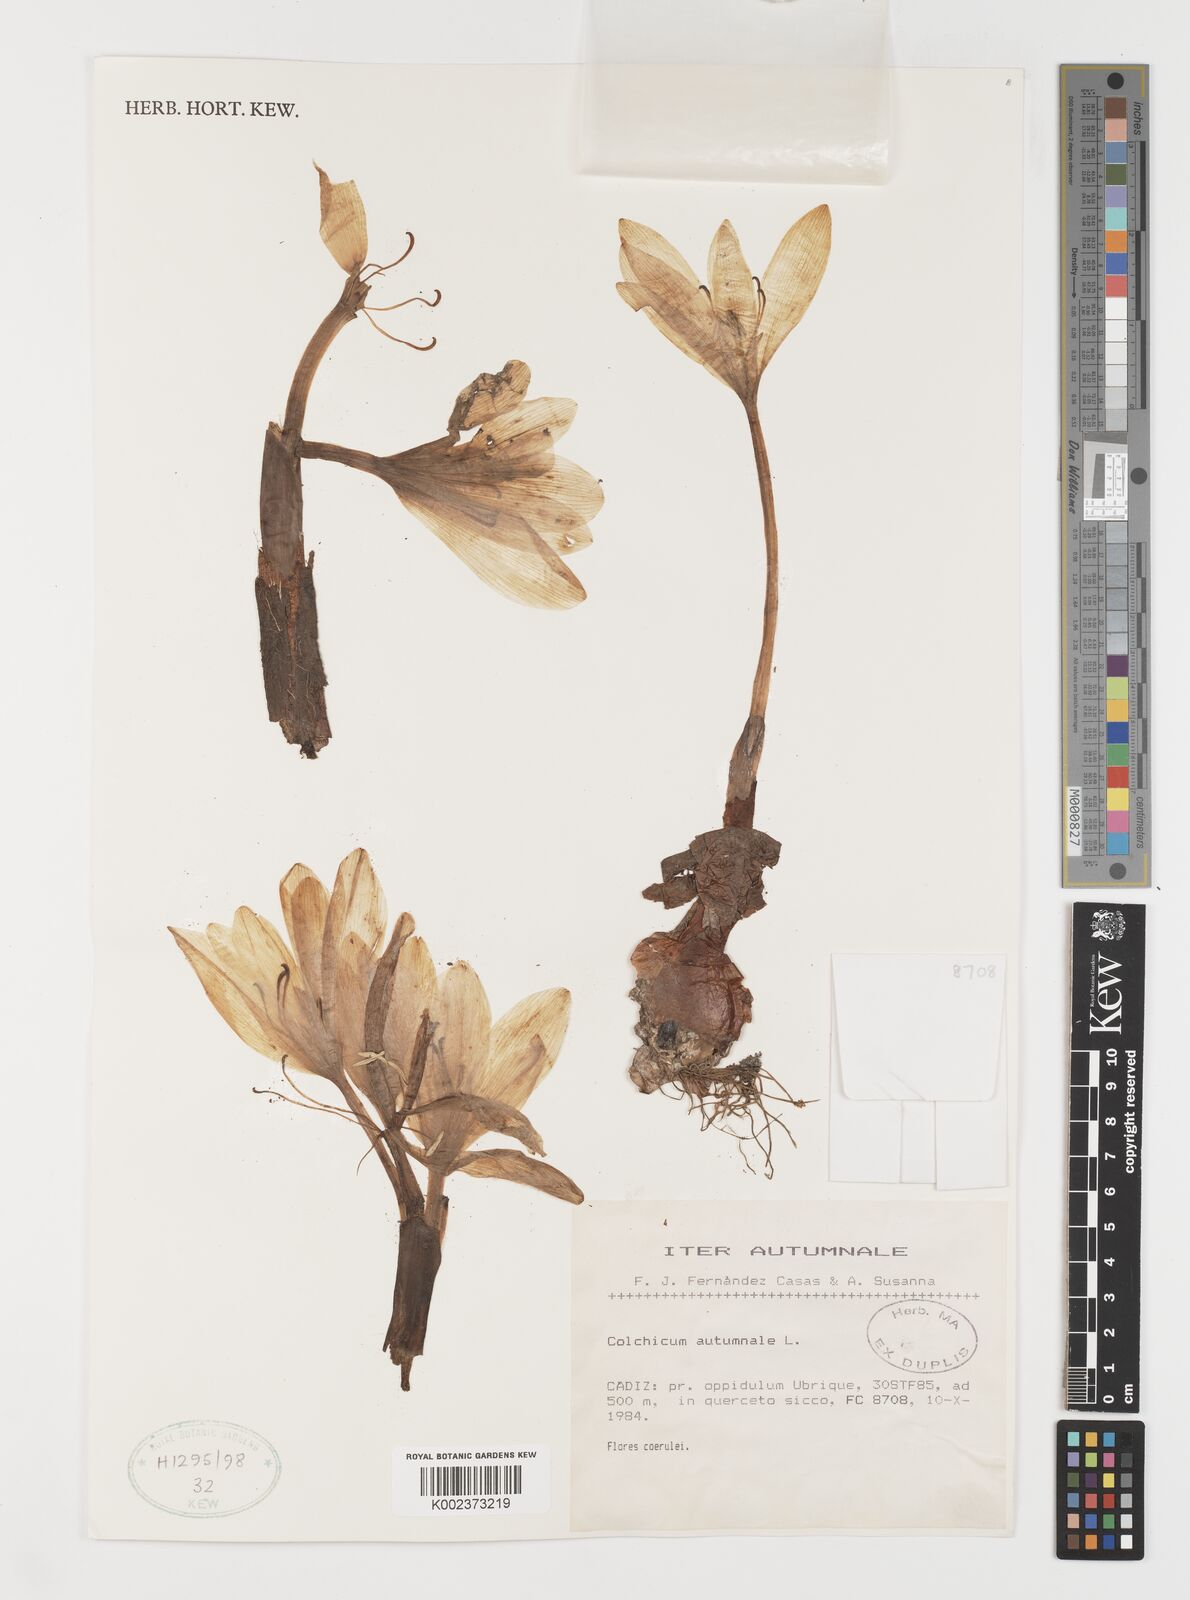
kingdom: Plantae
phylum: Tracheophyta
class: Liliopsida
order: Liliales
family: Colchicaceae
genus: Colchicum
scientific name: Colchicum autumnale
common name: Autumn crocus
